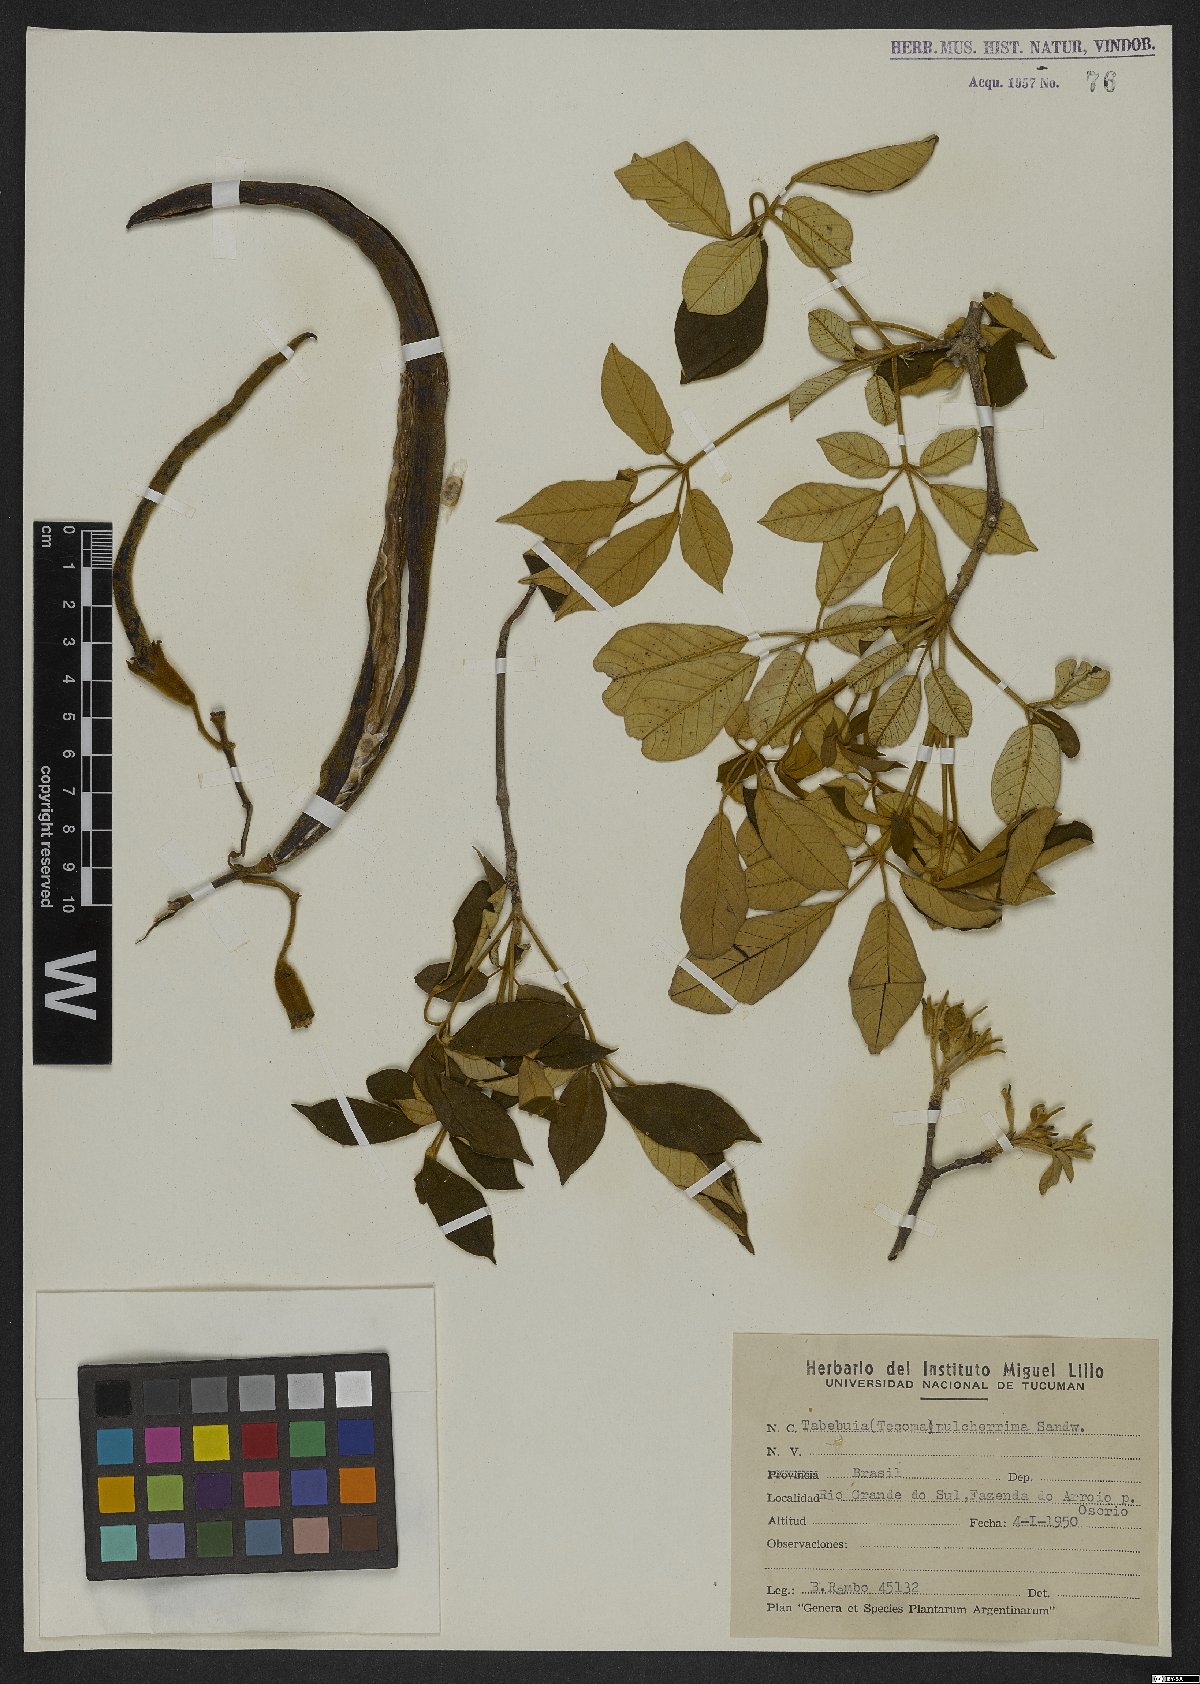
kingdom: Plantae
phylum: Tracheophyta
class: Magnoliopsida
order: Lamiales
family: Bignoniaceae
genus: Handroanthus
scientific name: Handroanthus pulcherrimus
